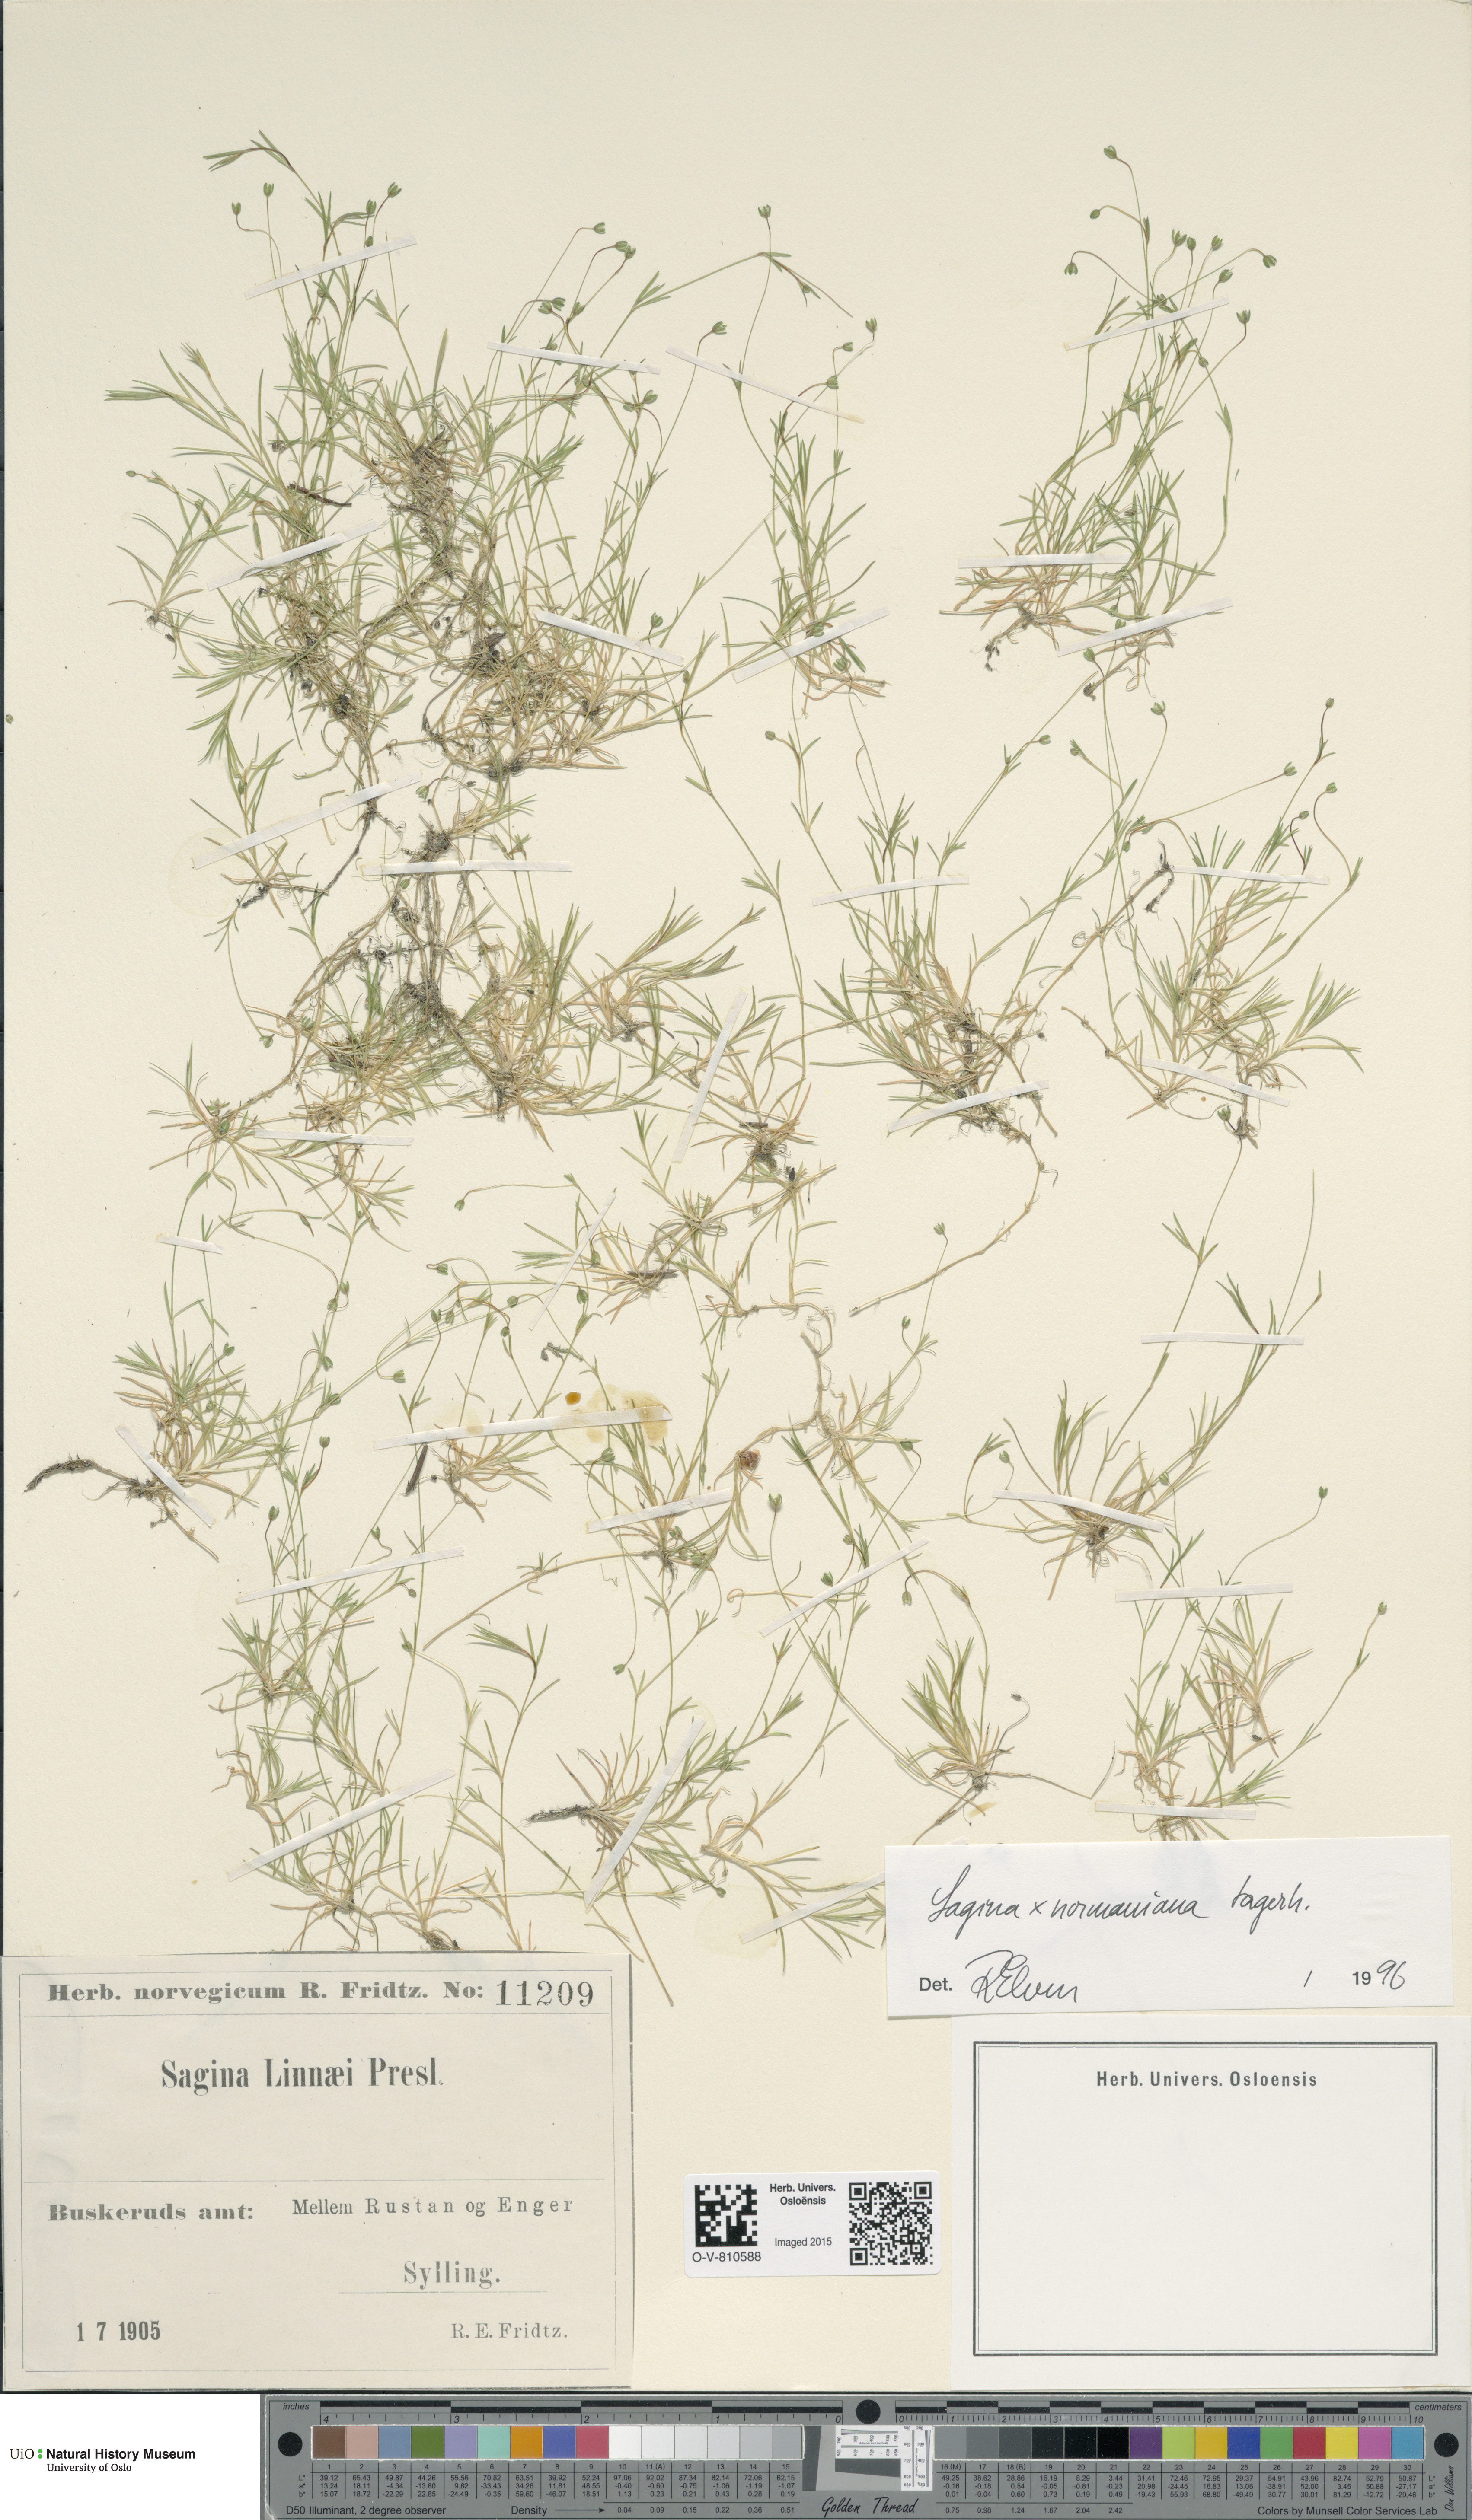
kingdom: Plantae
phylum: Tracheophyta
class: Magnoliopsida
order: Caryophyllales
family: Caryophyllaceae
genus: Sagina
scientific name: Sagina media
